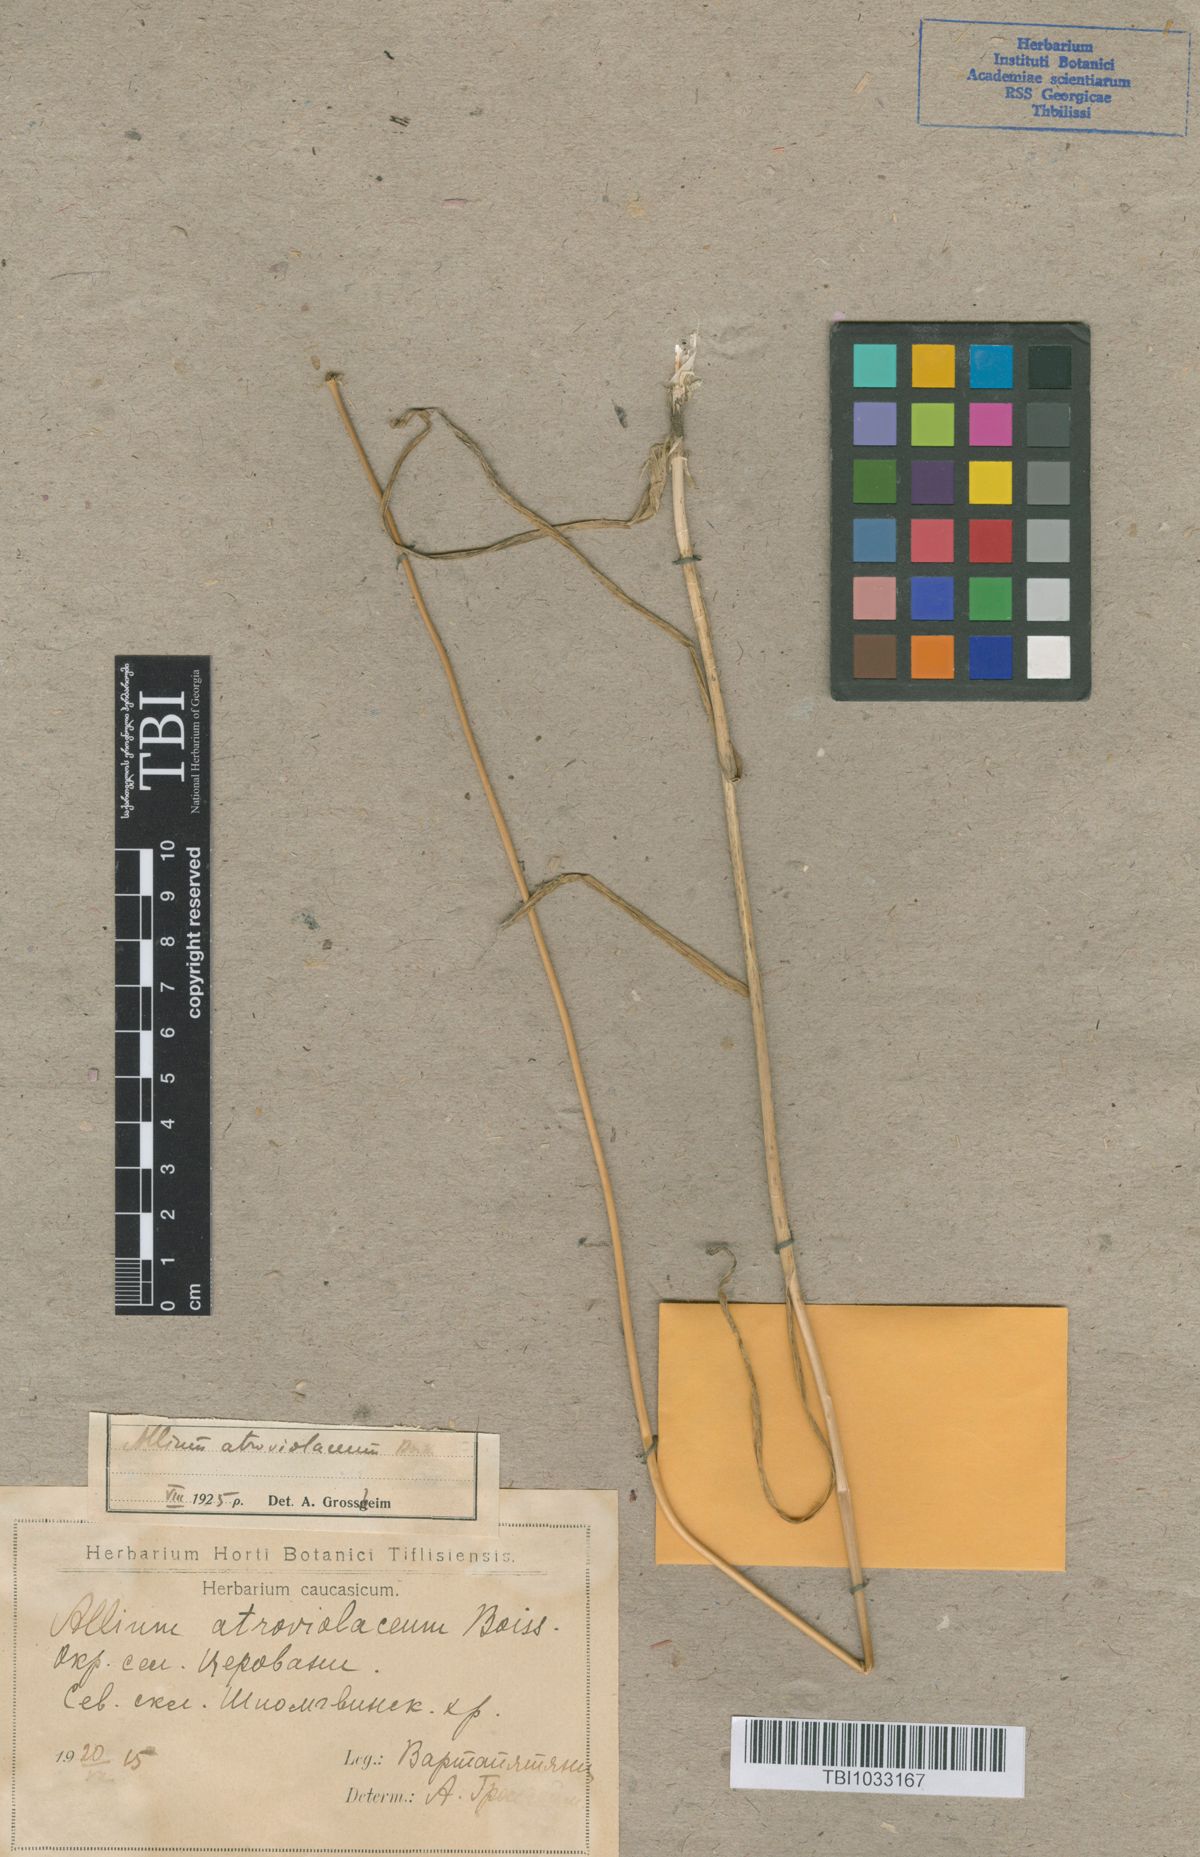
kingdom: Plantae
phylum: Tracheophyta
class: Liliopsida
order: Asparagales
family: Amaryllidaceae
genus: Allium
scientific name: Allium atroviolaceum
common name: Broadleaf wild leek
